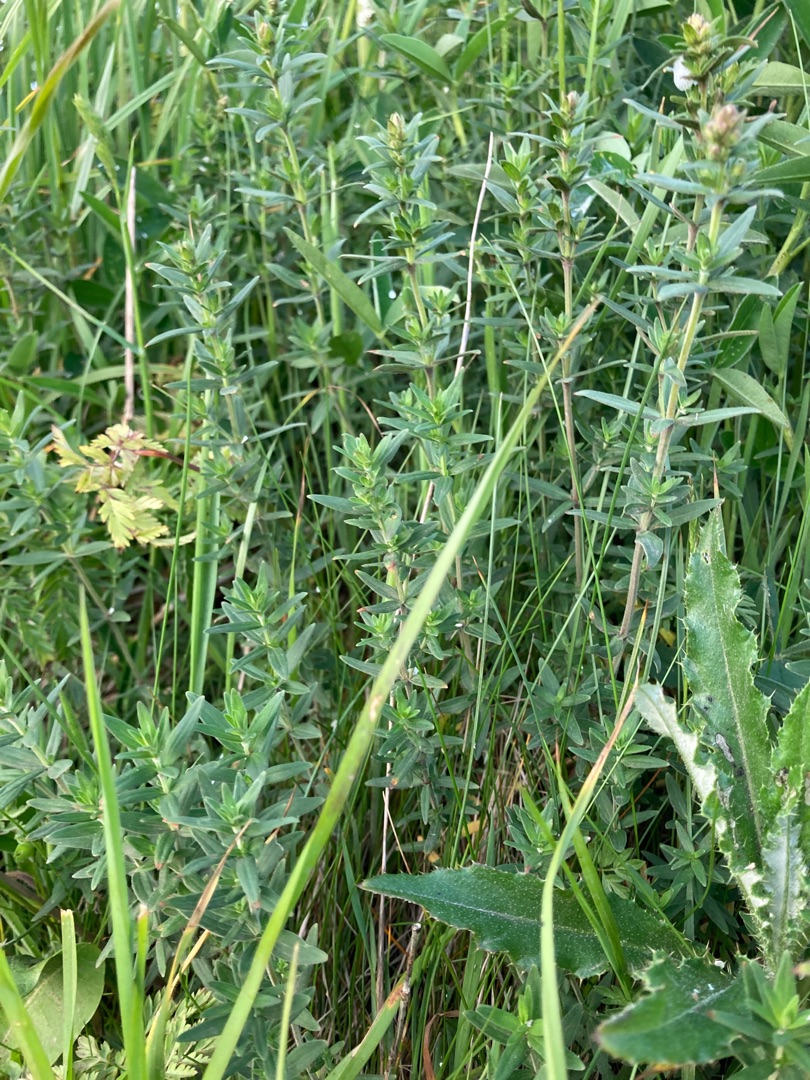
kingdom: Plantae
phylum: Tracheophyta
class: Magnoliopsida
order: Gentianales
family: Rubiaceae
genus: Galium
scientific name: Galium boreale
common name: Trenervet snerre
